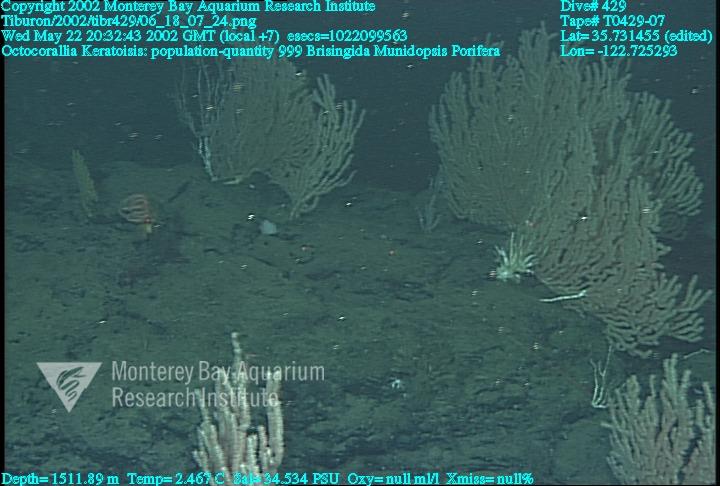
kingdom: Animalia
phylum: Porifera
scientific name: Porifera
